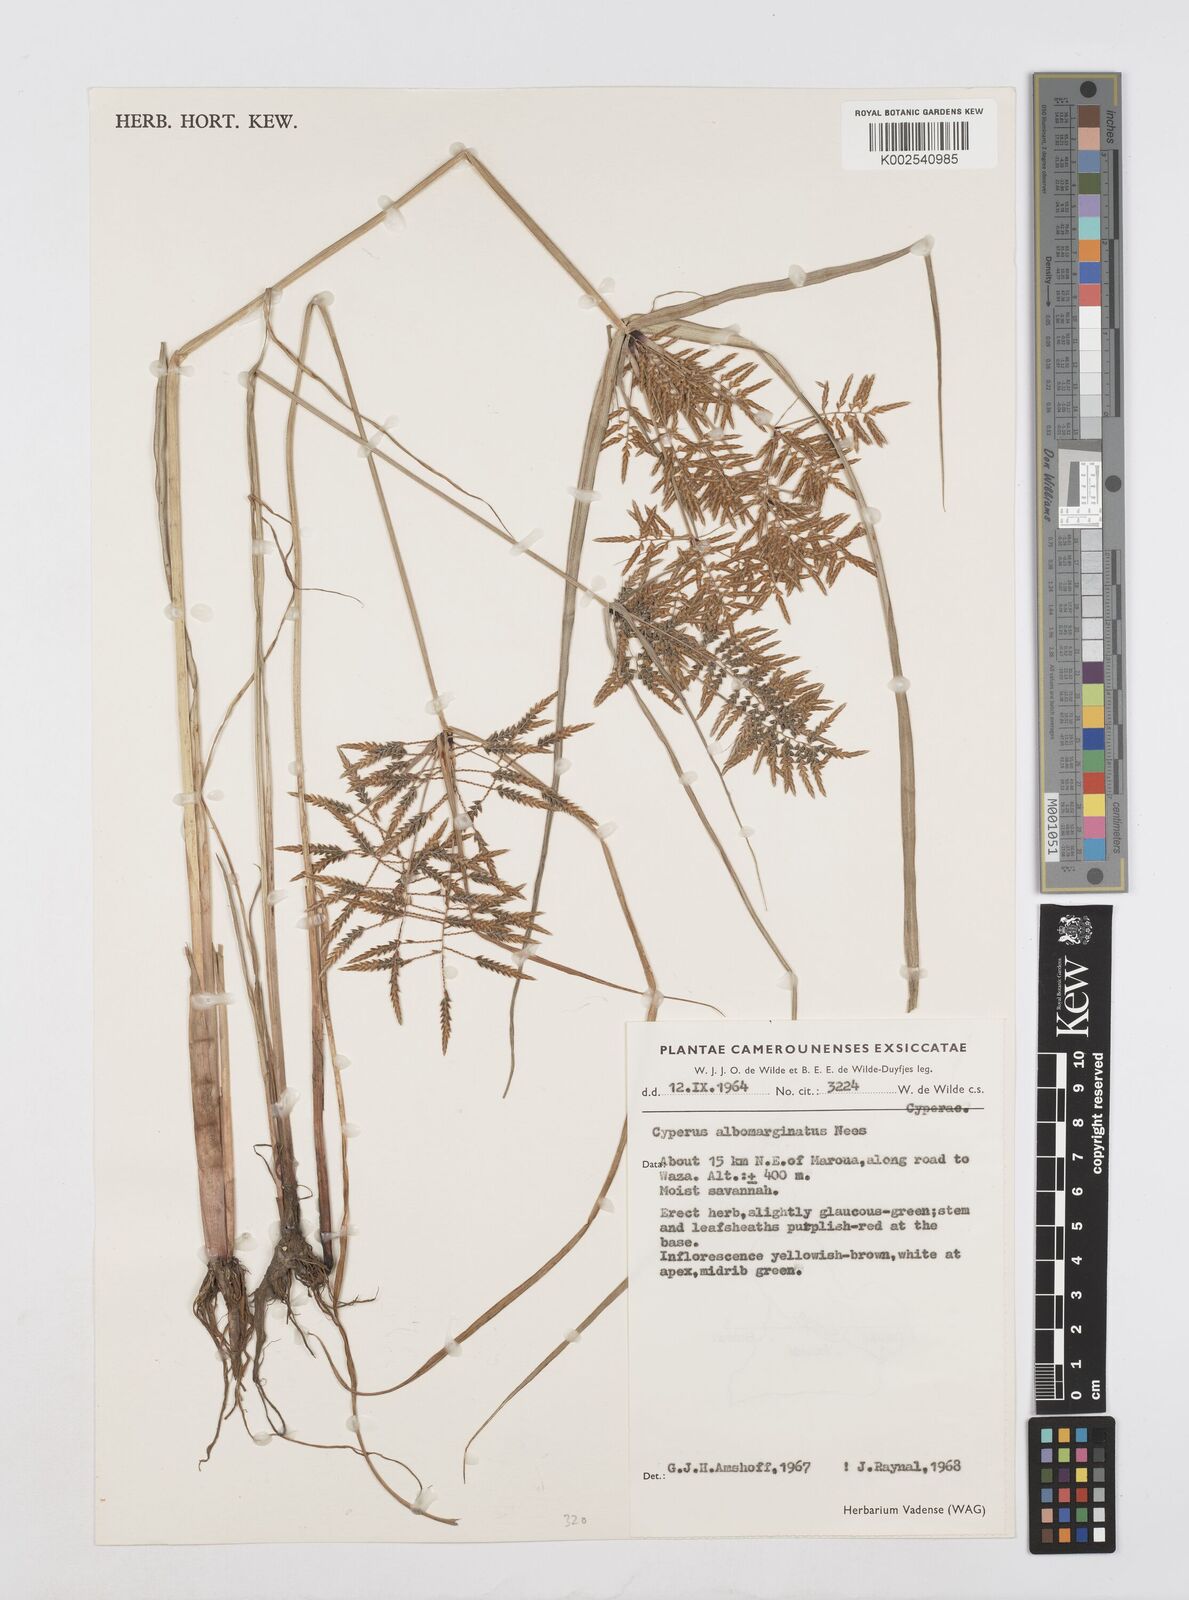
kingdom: Plantae
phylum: Tracheophyta
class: Liliopsida
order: Poales
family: Cyperaceae
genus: Cyperus
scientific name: Cyperus macrostachyos
